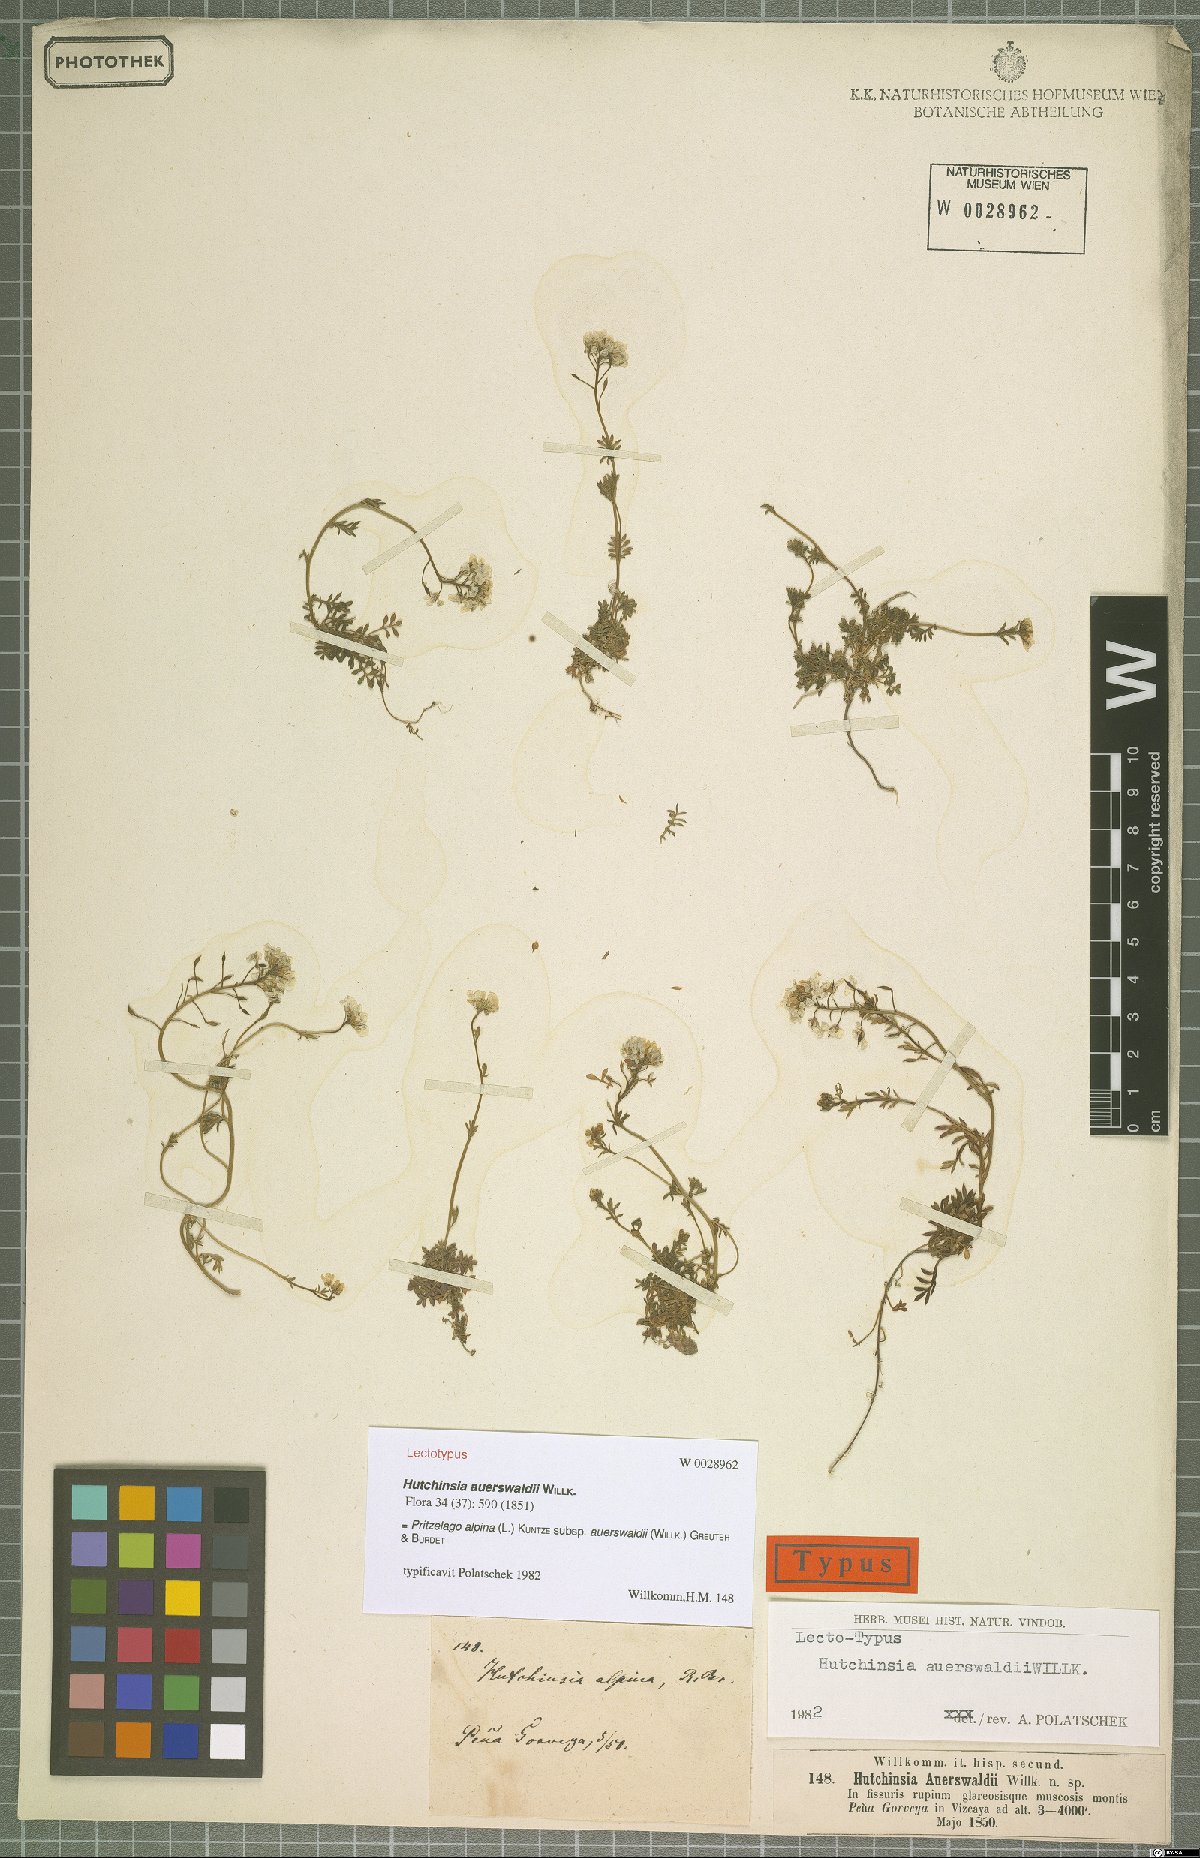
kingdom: Plantae
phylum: Tracheophyta
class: Magnoliopsida
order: Brassicales
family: Brassicaceae
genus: Hornungia
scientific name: Hornungia alpina
